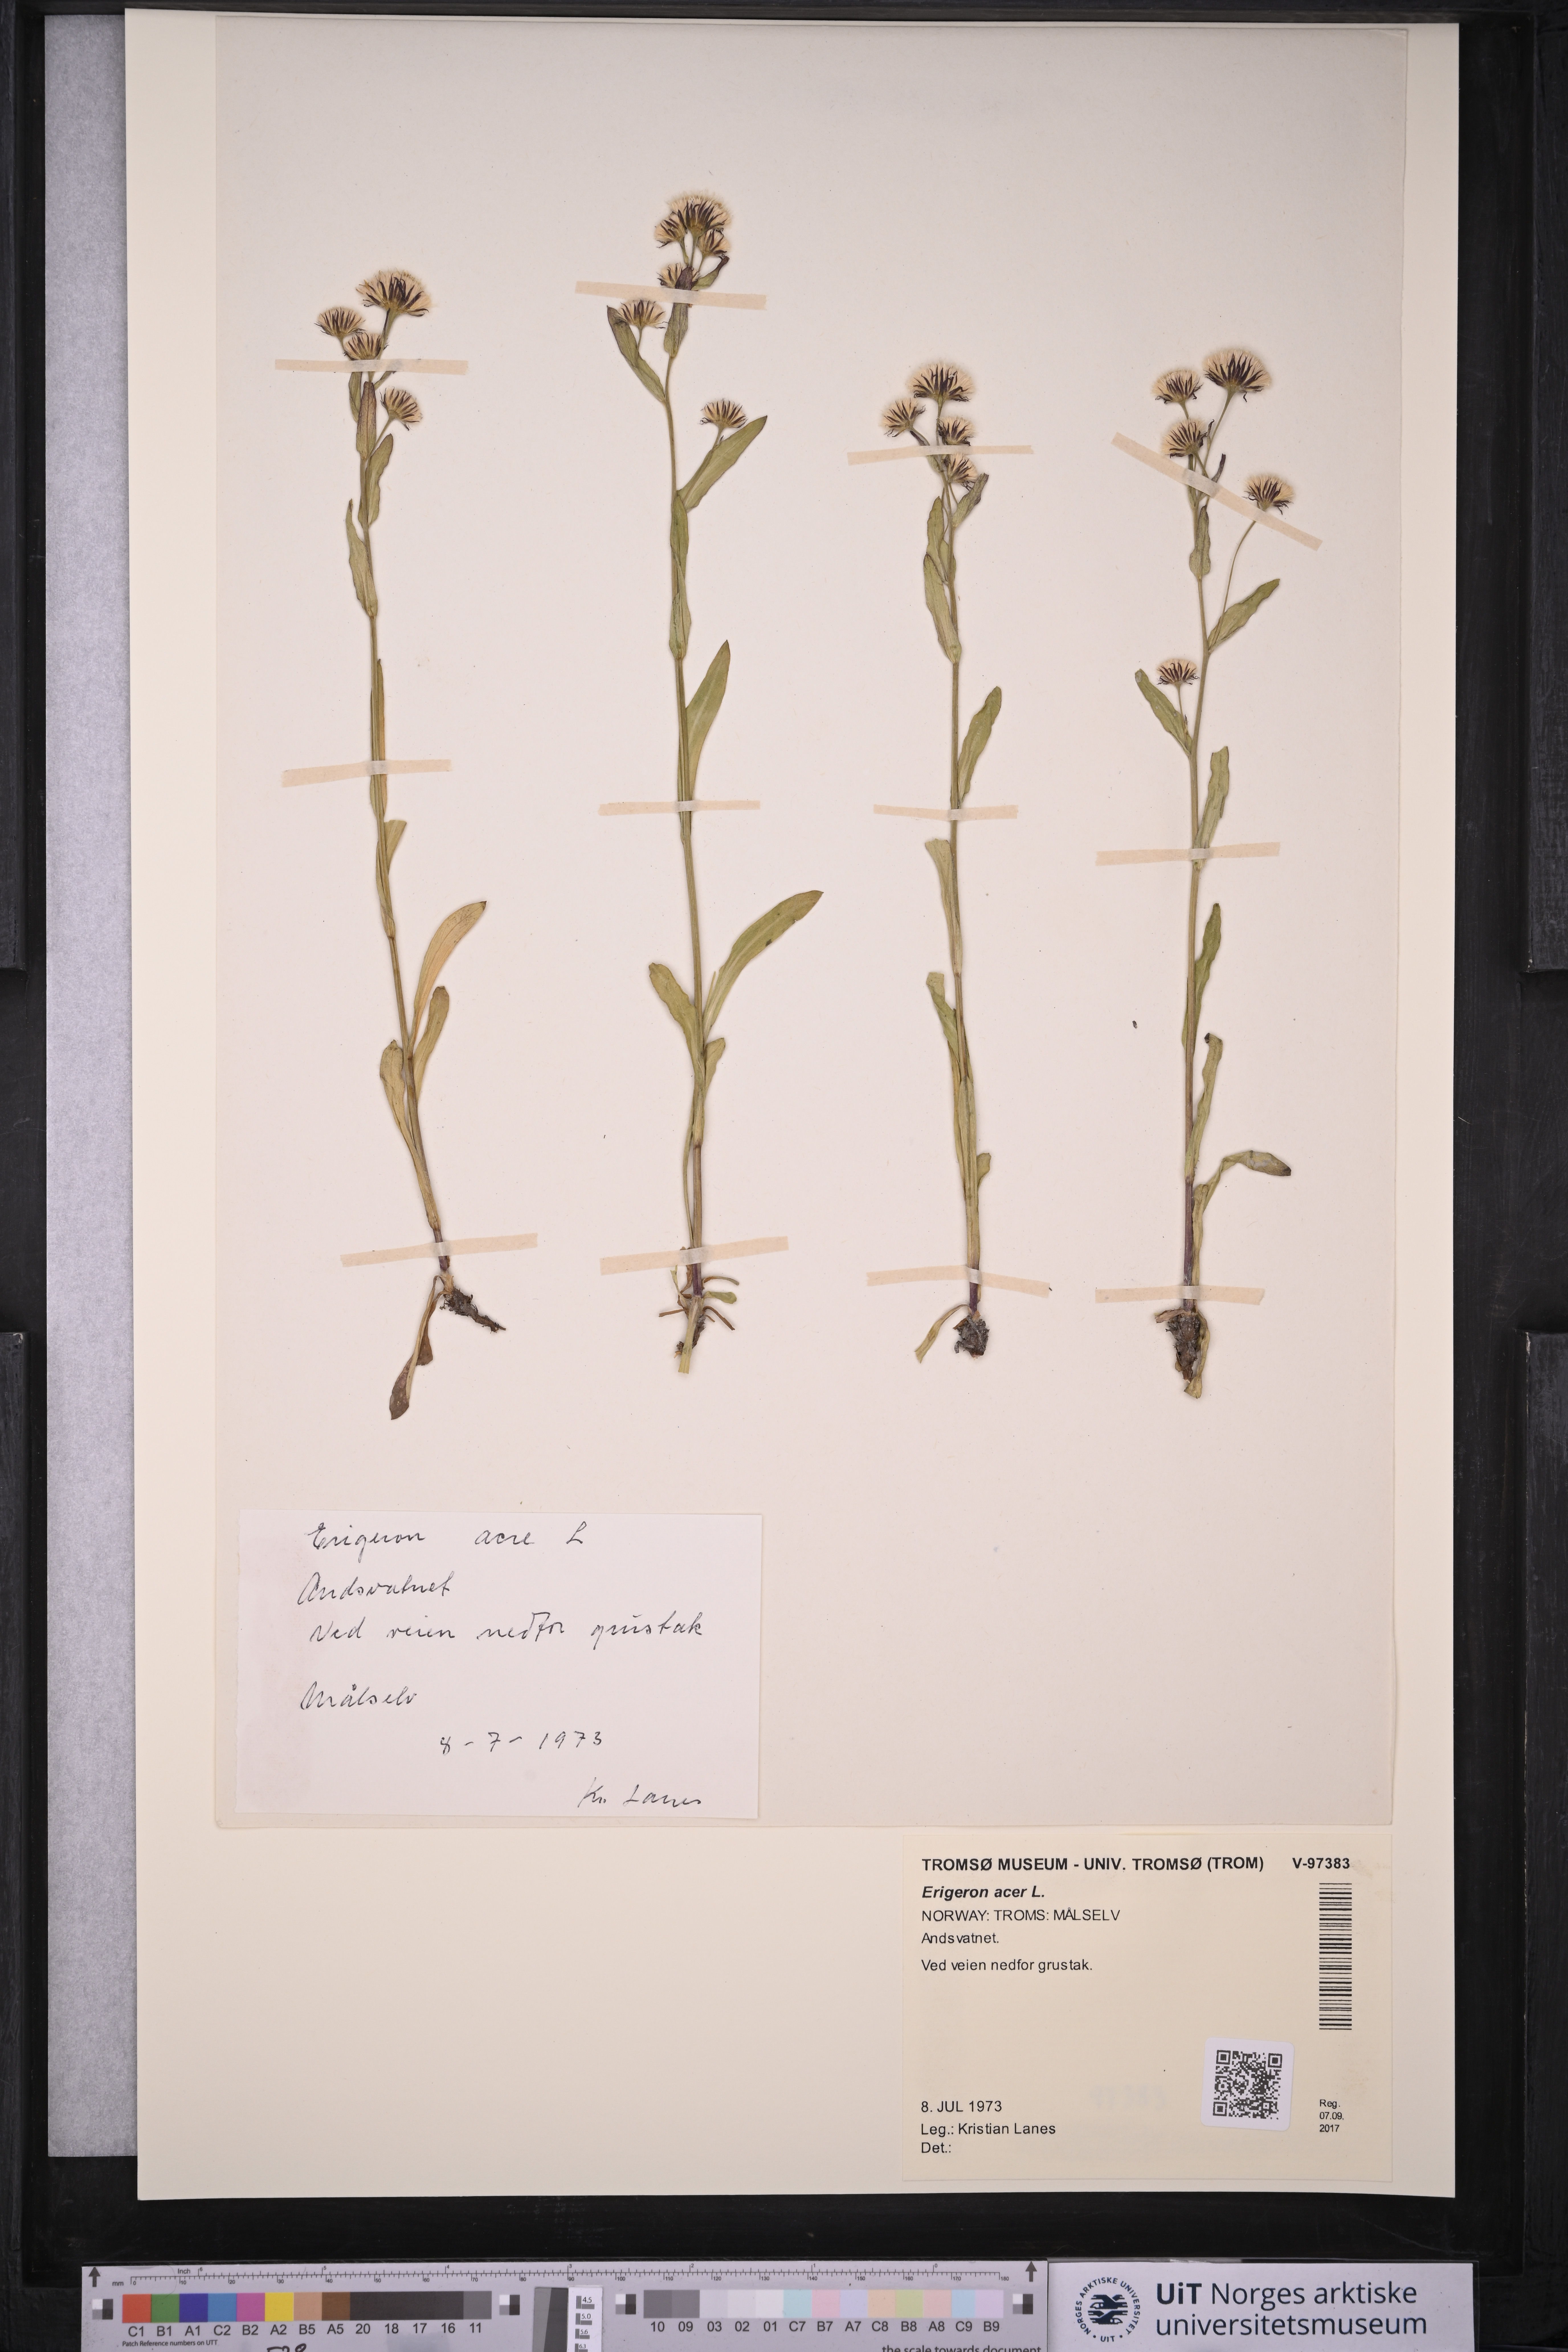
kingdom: Plantae
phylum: Tracheophyta
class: Magnoliopsida
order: Asterales
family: Asteraceae
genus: Erigeron
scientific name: Erigeron acris
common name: Blue fleabane
